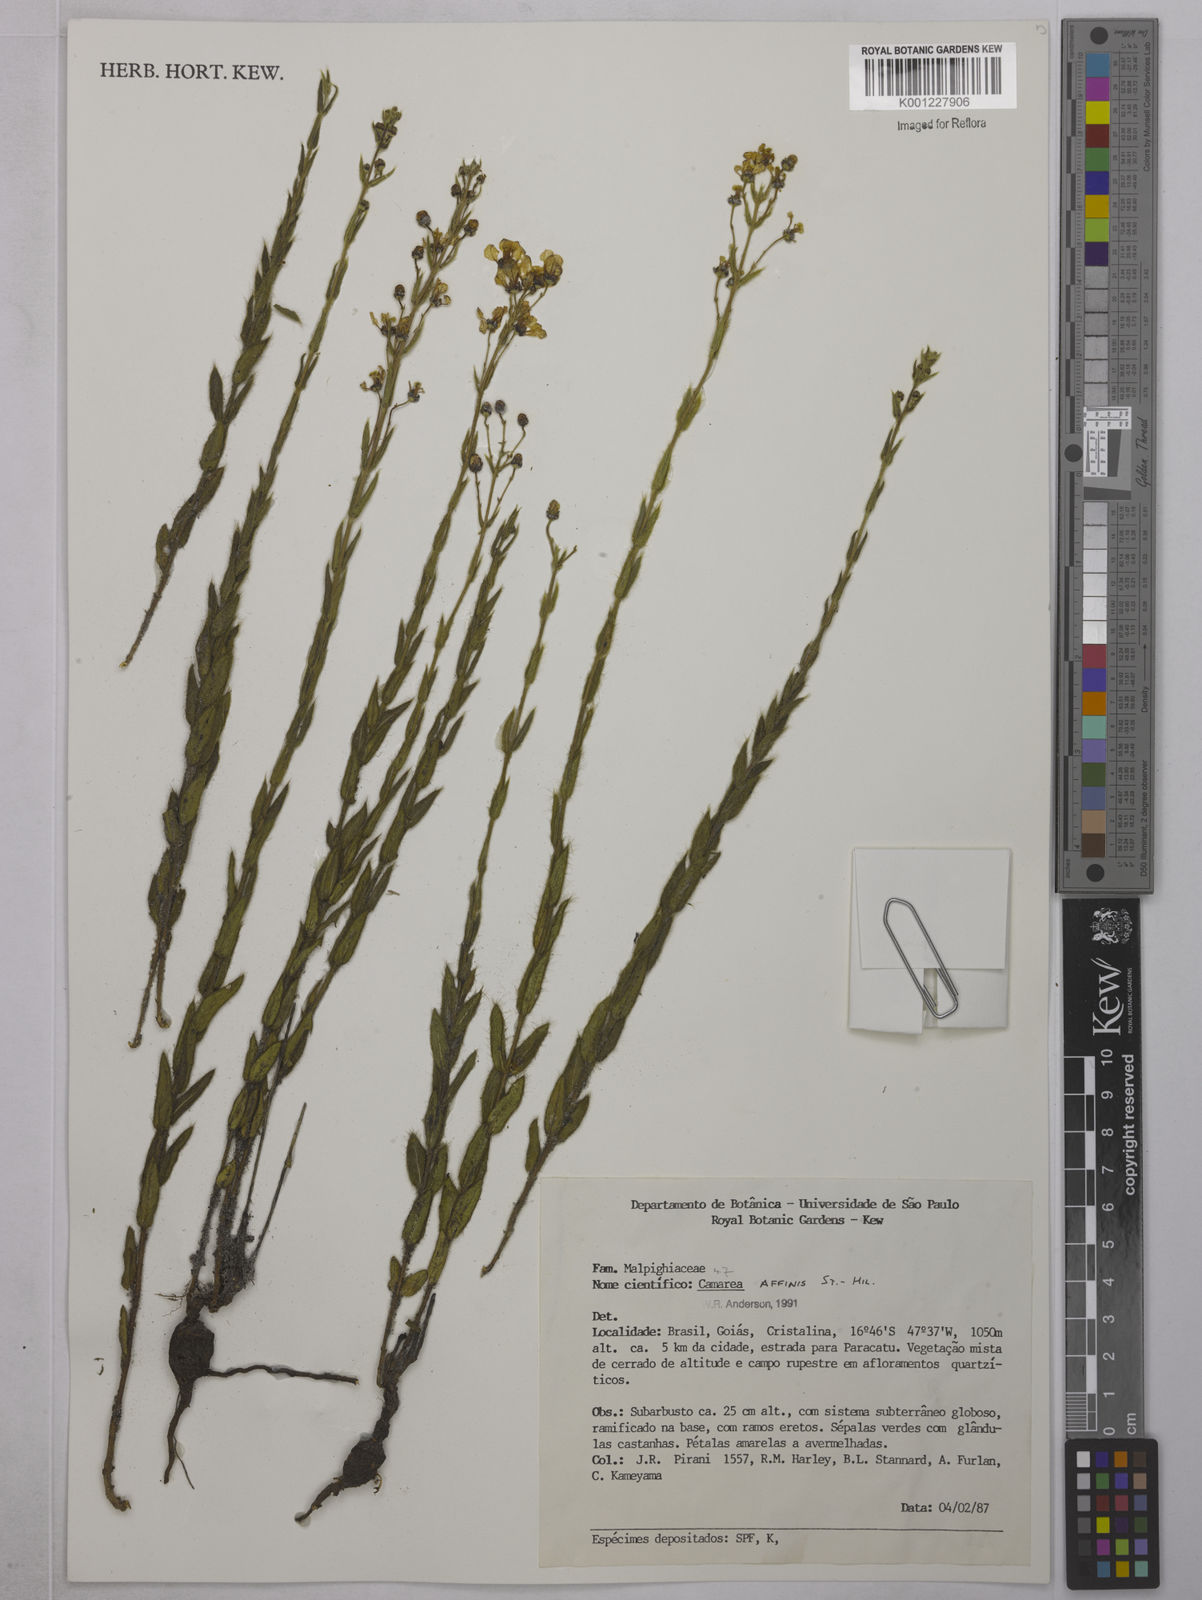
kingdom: Plantae
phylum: Tracheophyta
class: Magnoliopsida
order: Malpighiales
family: Malpighiaceae
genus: Camarea
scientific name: Camarea affinis
